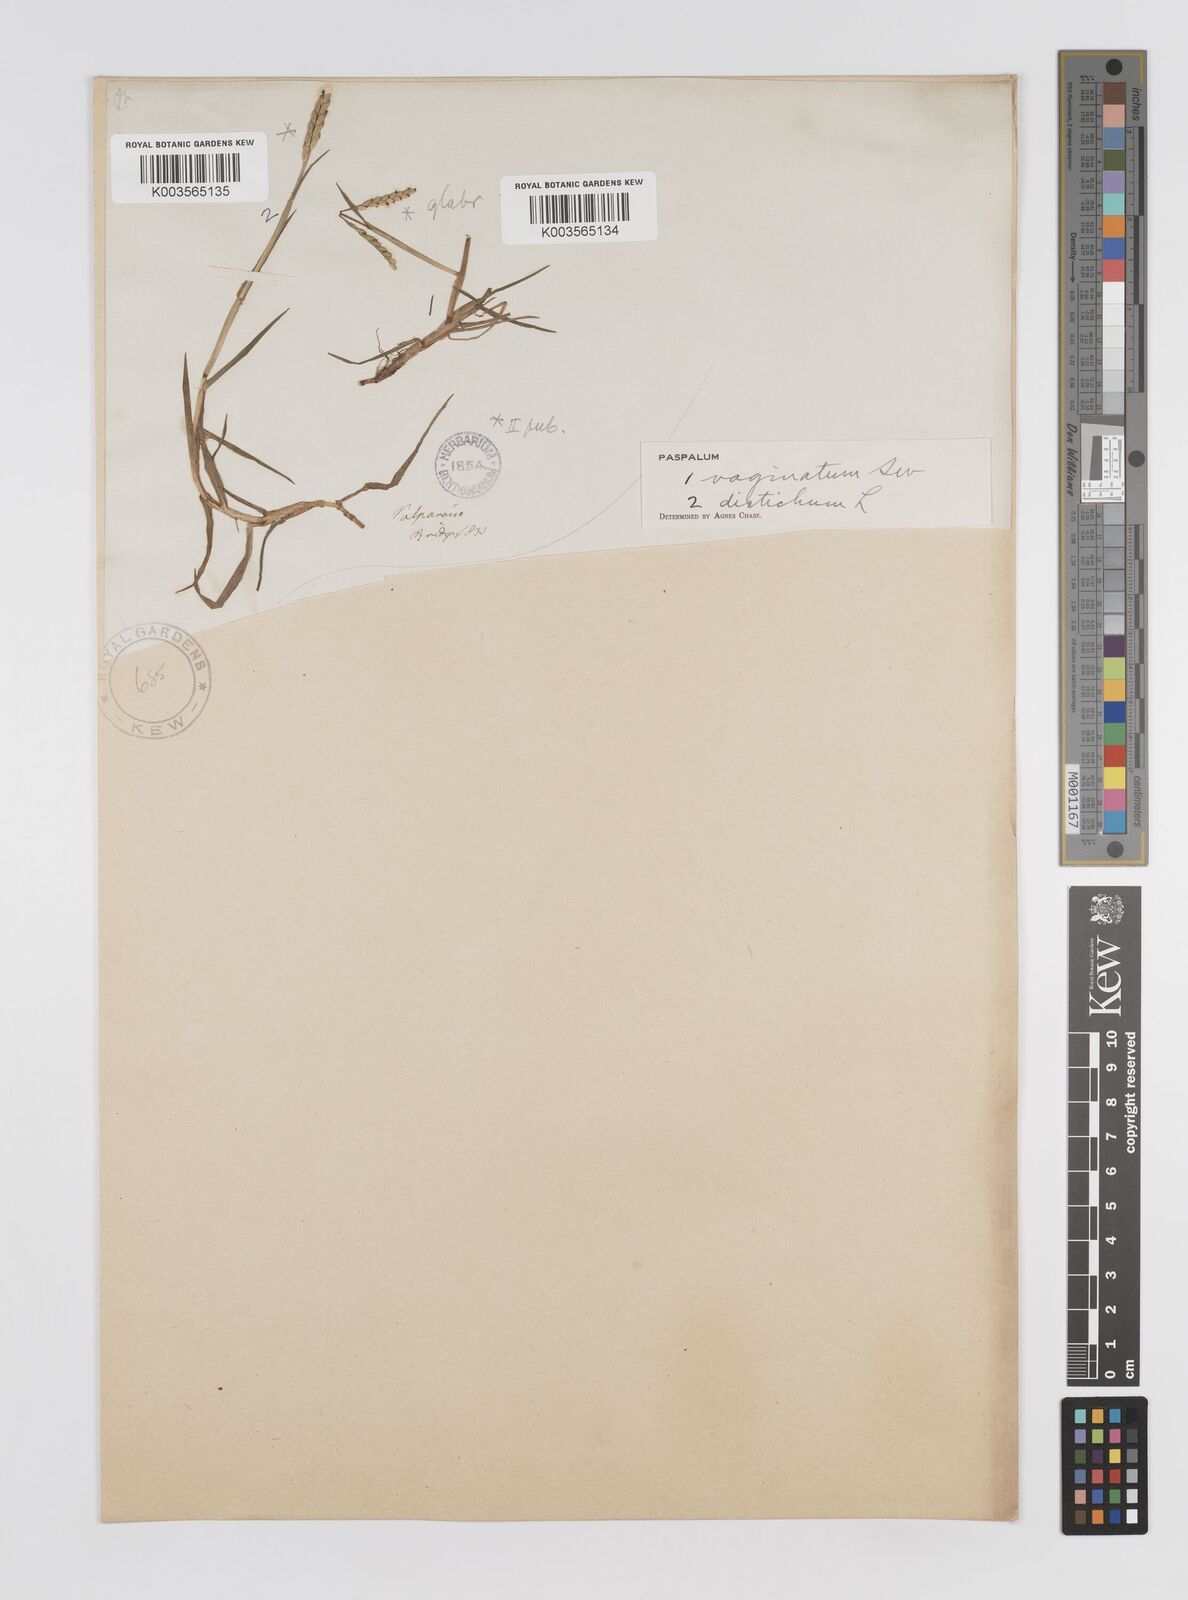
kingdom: Plantae
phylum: Tracheophyta
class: Liliopsida
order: Poales
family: Poaceae
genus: Paspalum
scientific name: Paspalum distichum
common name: Knotgrass
